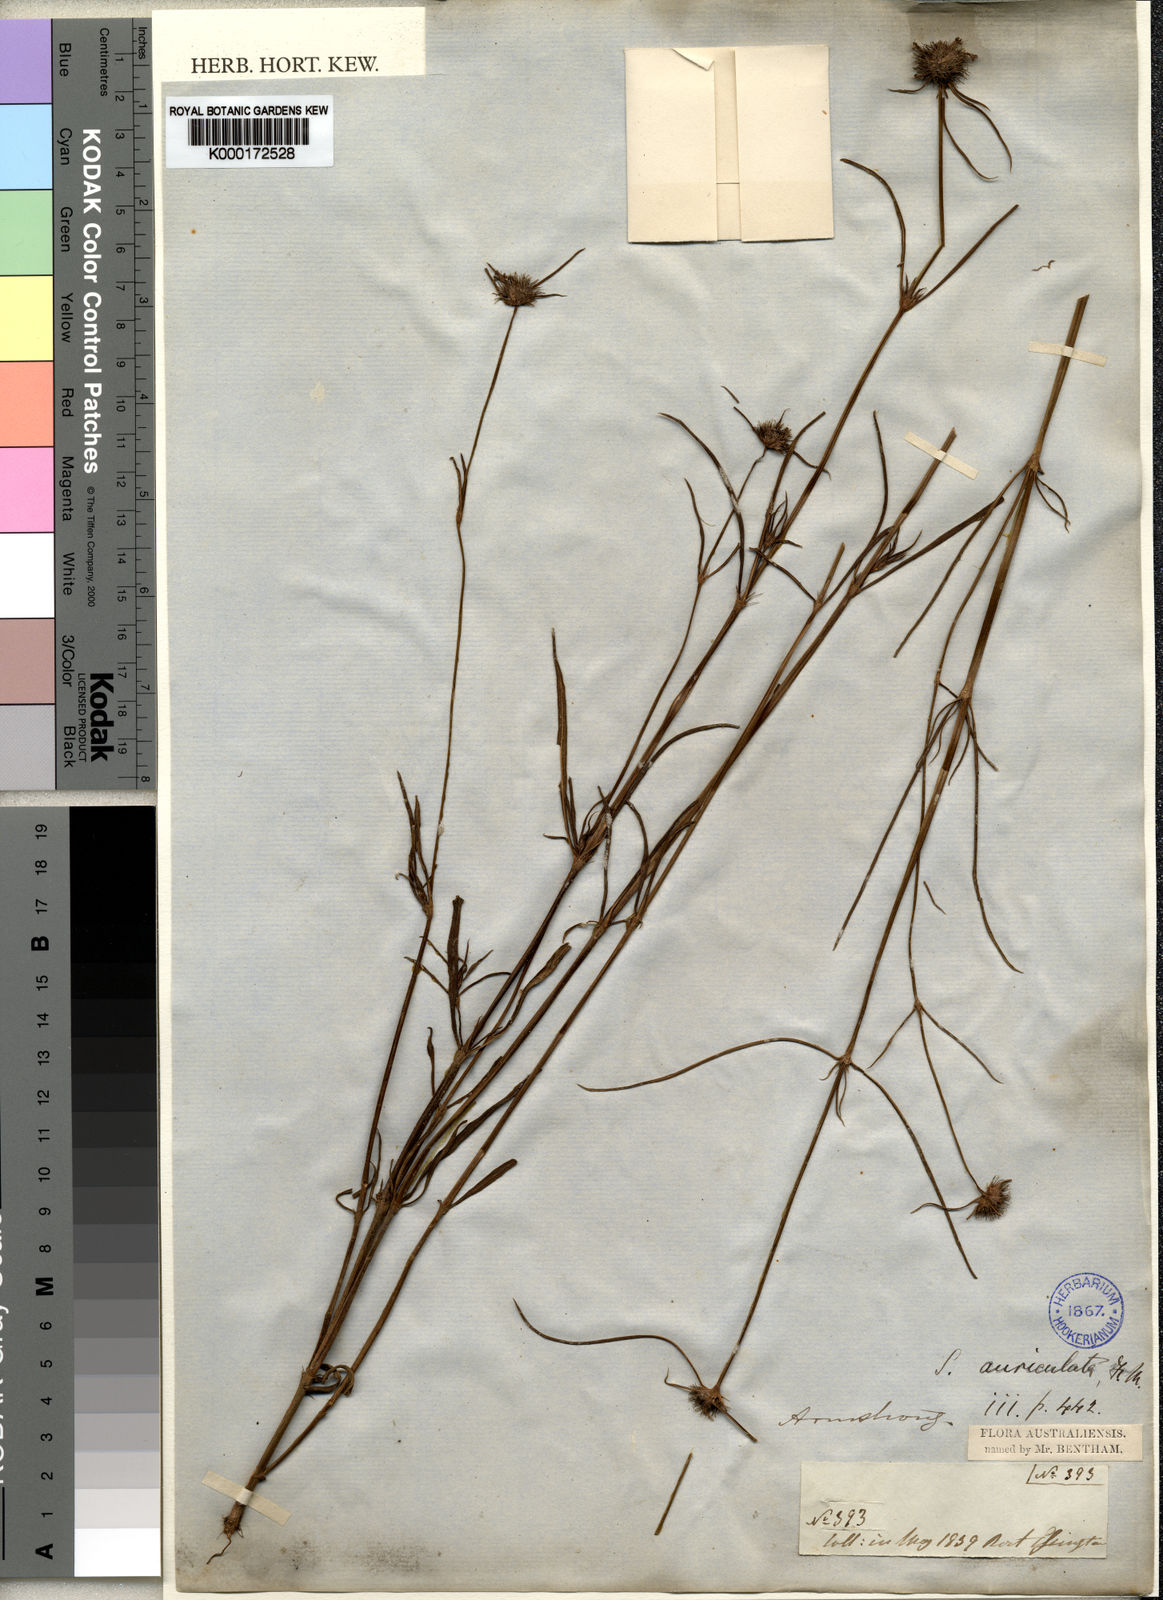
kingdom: Plantae
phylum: Tracheophyta
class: Magnoliopsida
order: Gentianales
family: Rubiaceae
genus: Spermacoce
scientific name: Spermacoce auriculata
